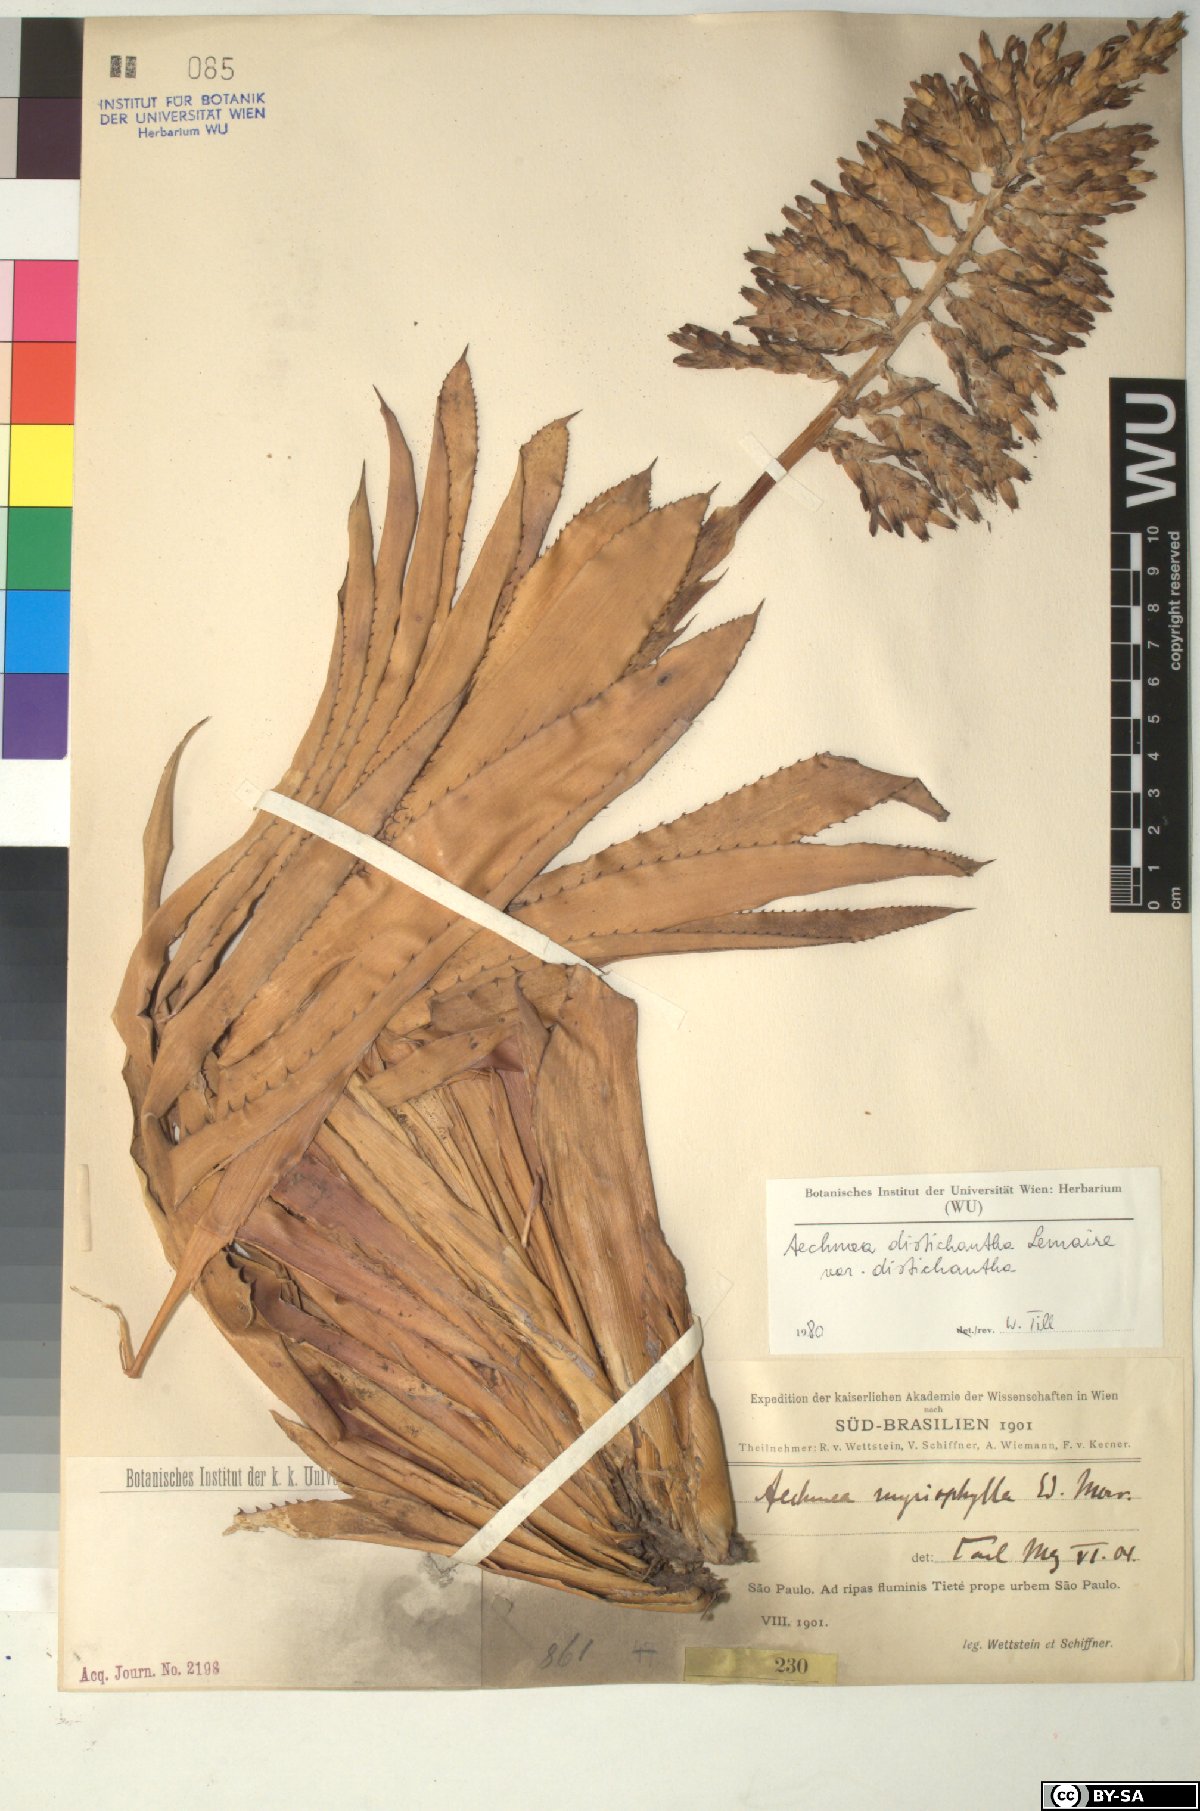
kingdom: Plantae
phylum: Tracheophyta
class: Liliopsida
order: Poales
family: Bromeliaceae
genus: Aechmea
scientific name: Aechmea
